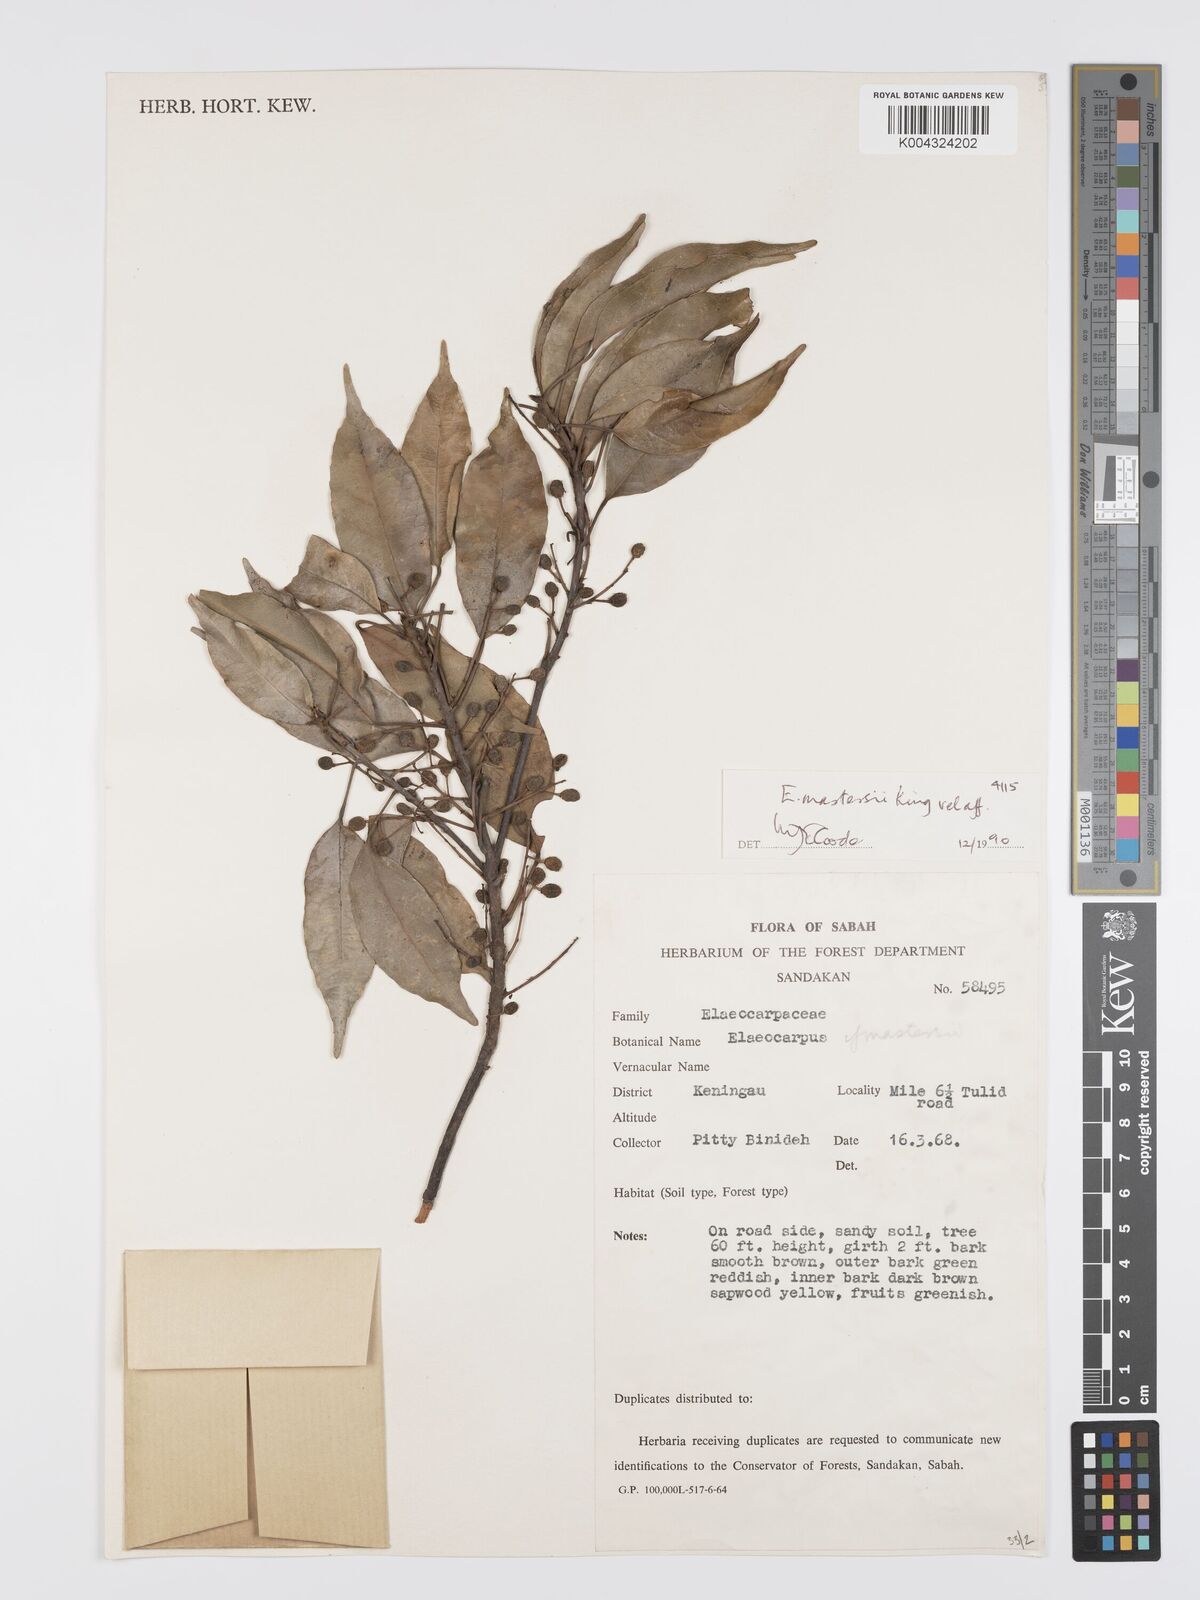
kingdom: Plantae
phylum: Tracheophyta
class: Magnoliopsida
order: Oxalidales
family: Elaeocarpaceae
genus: Elaeocarpus
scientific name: Elaeocarpus
